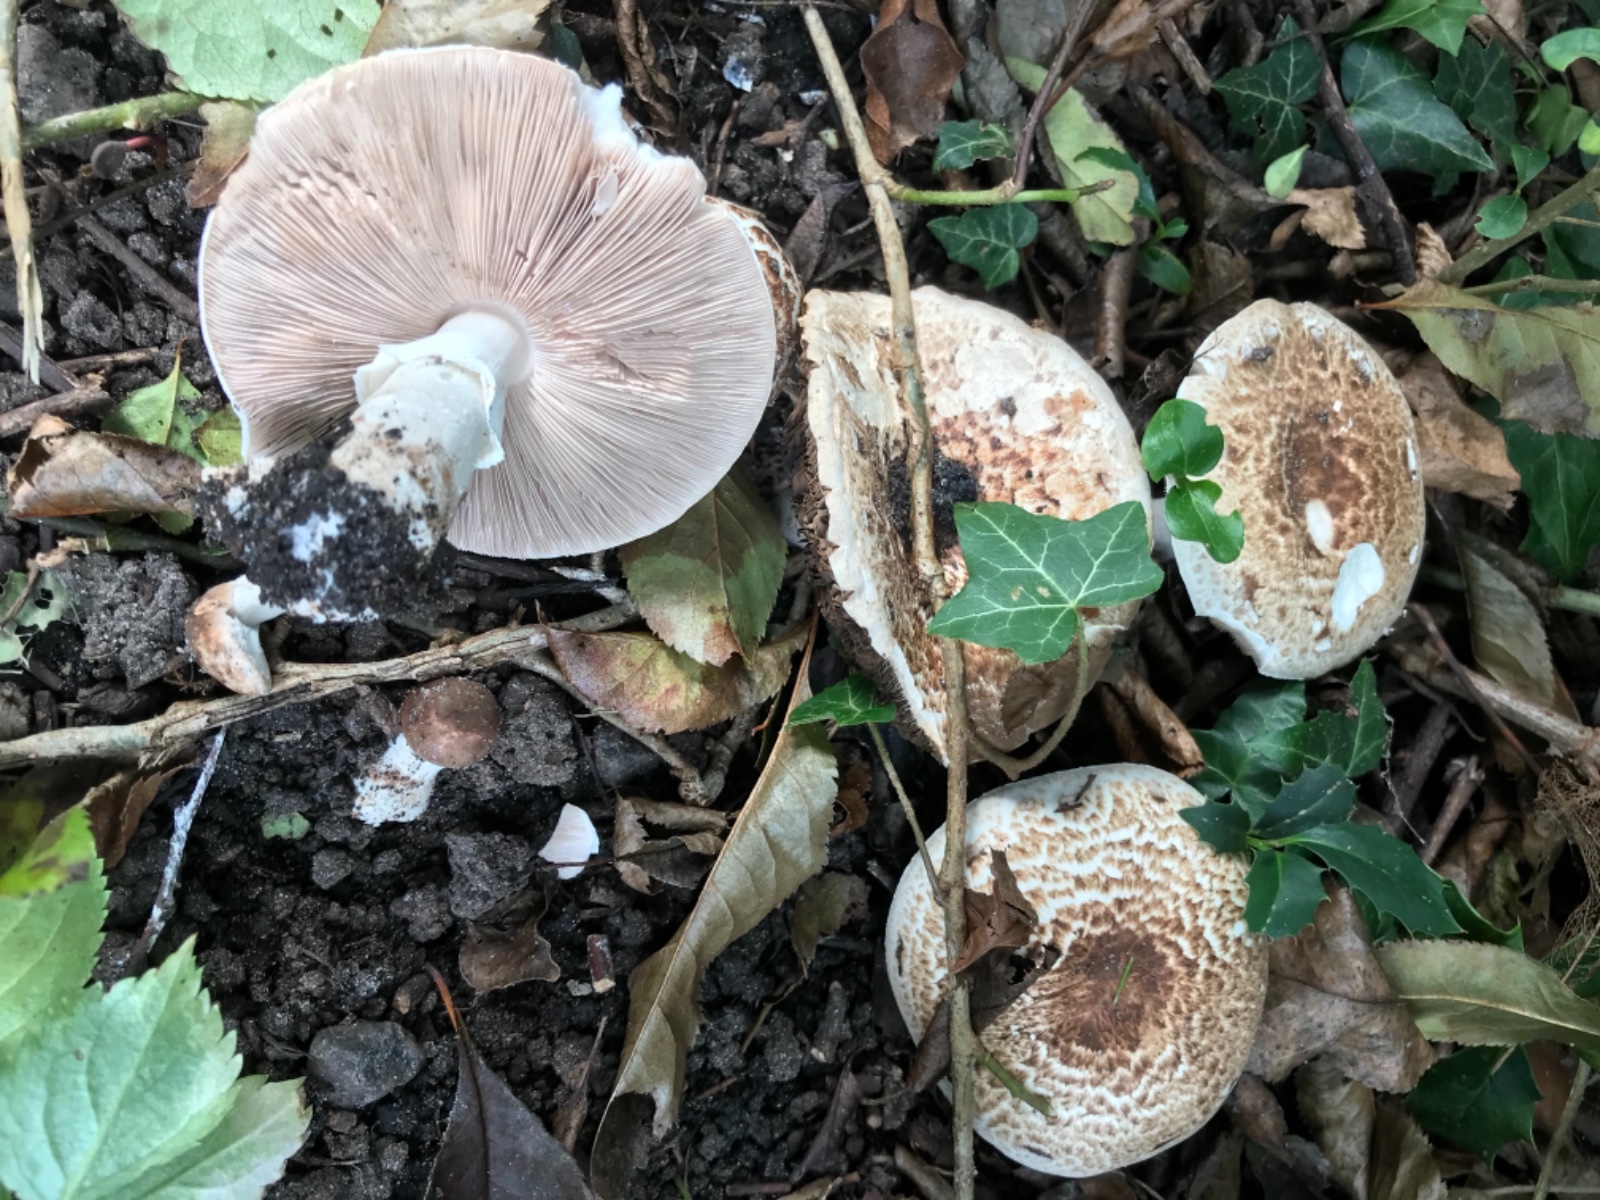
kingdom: Fungi
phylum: Basidiomycota
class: Agaricomycetes
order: Agaricales
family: Agaricaceae
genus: Agaricus
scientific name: Agaricus impudicus
